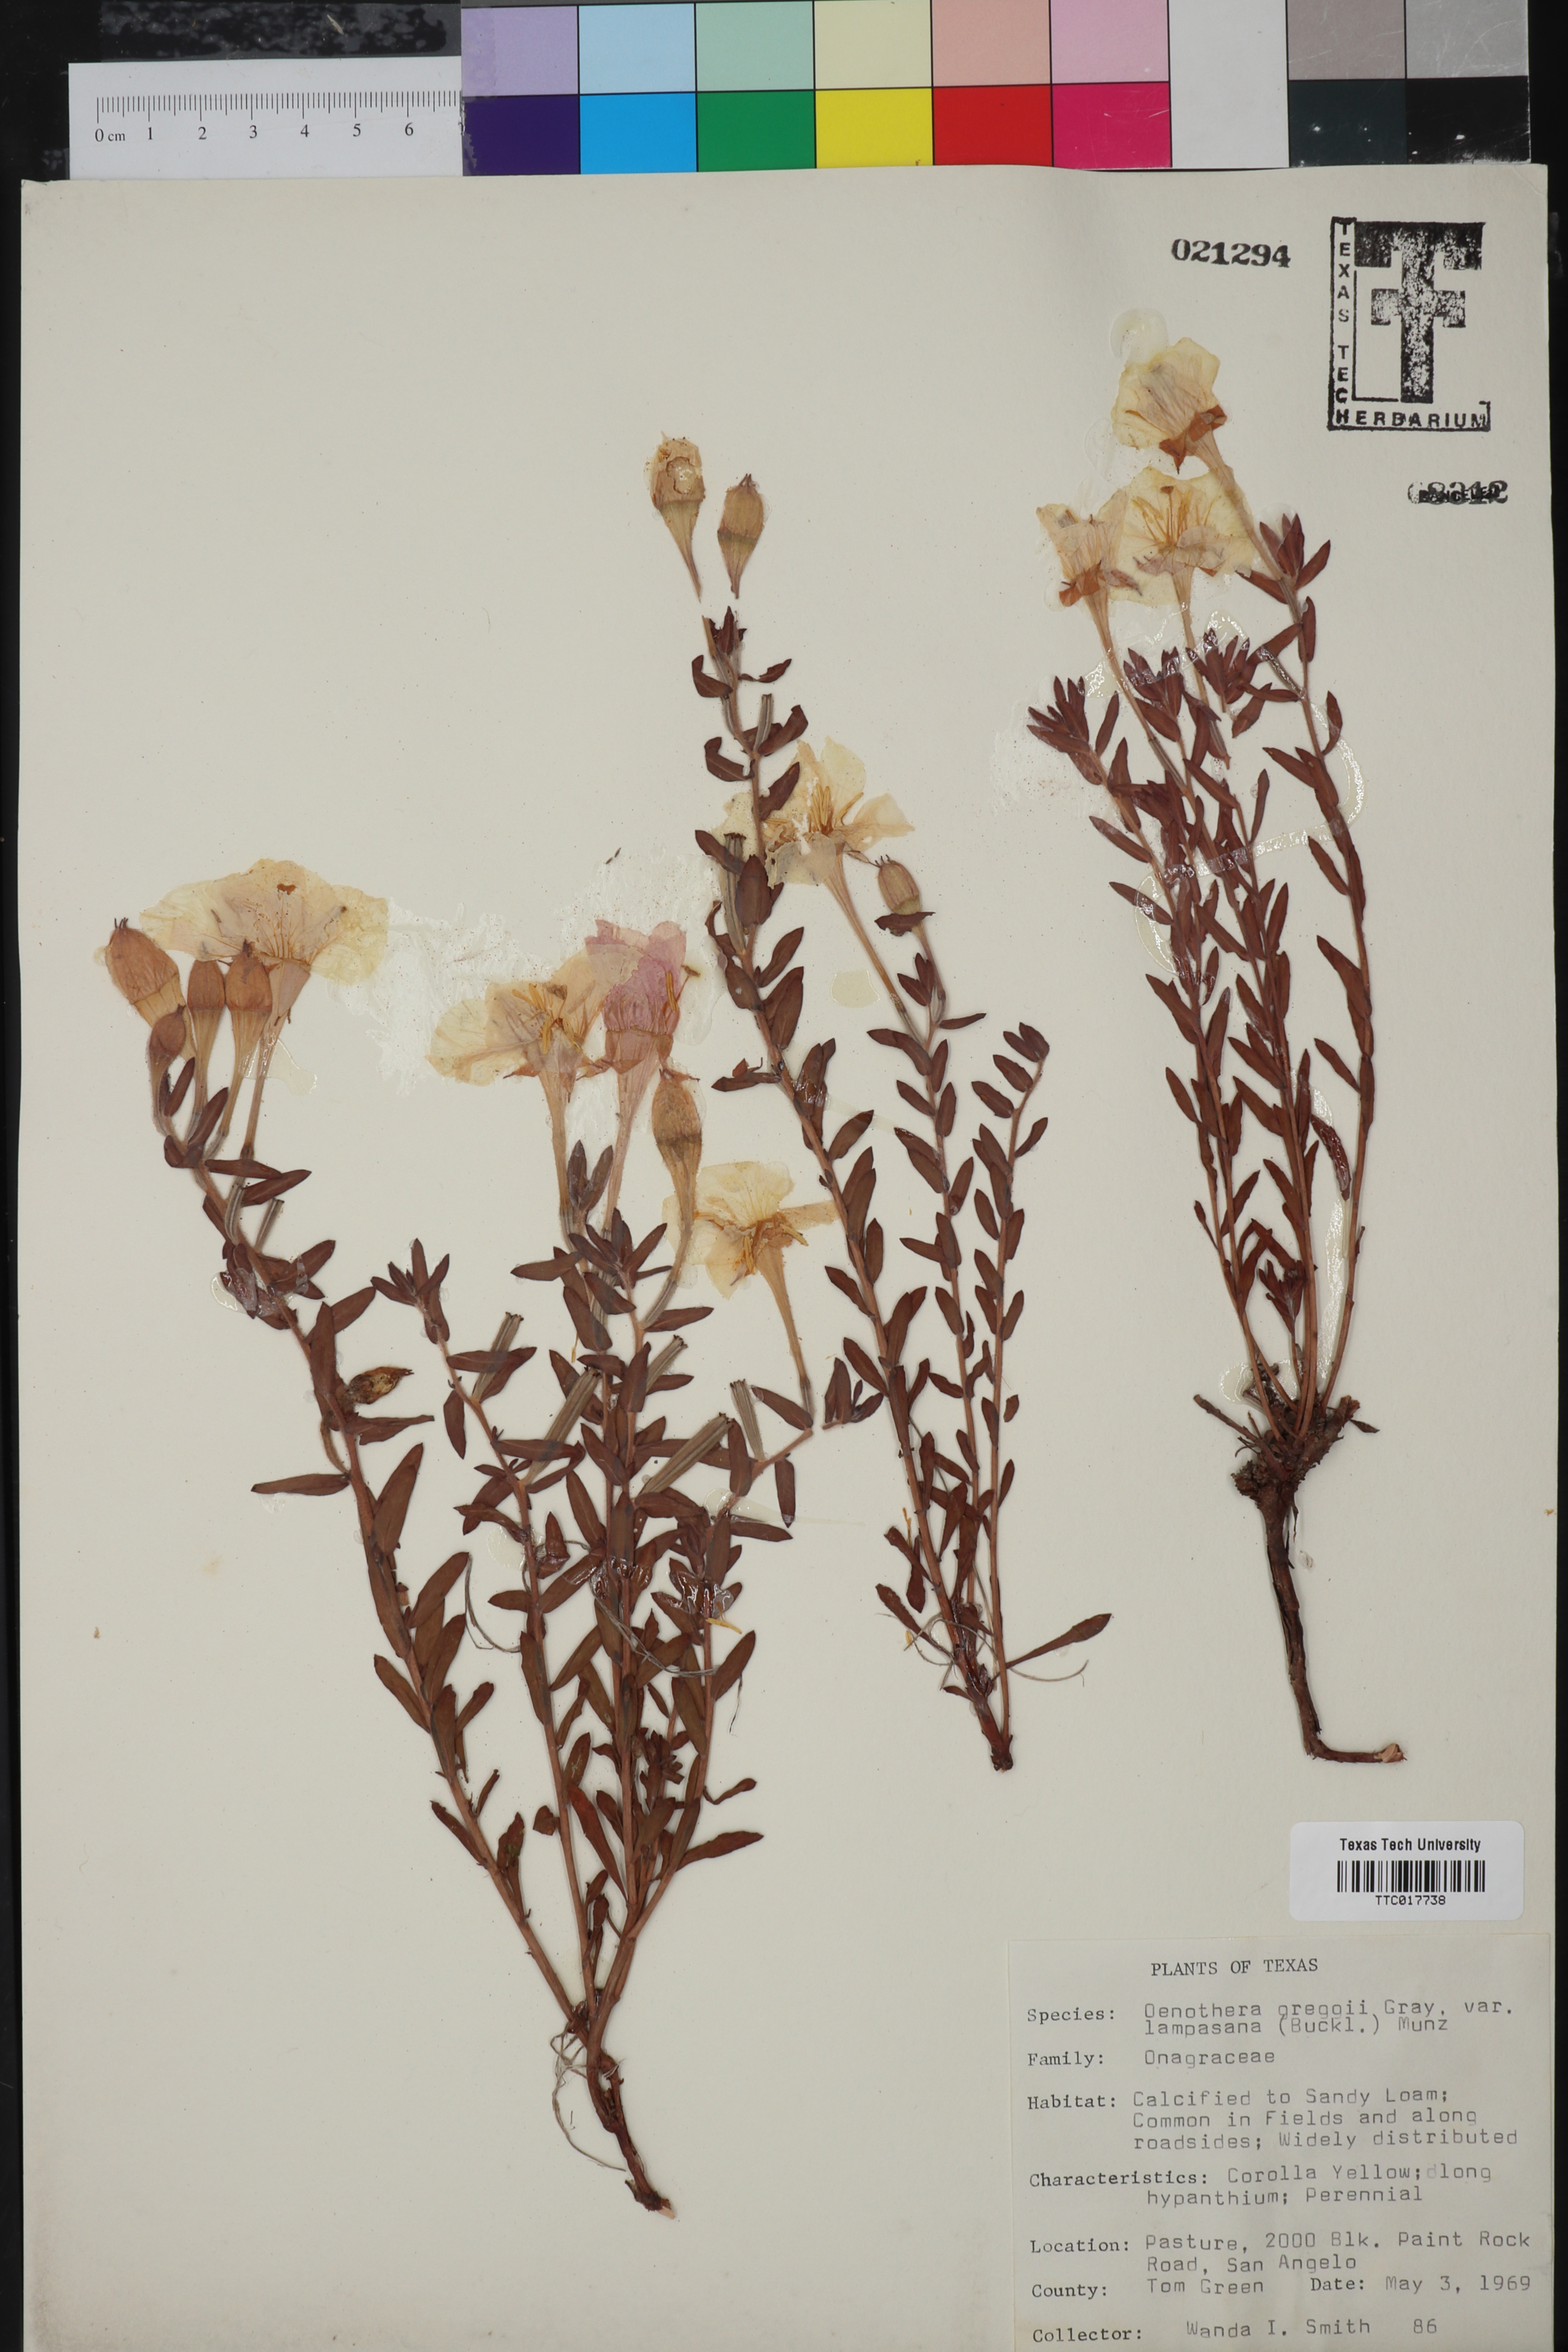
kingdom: Plantae
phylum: Tracheophyta
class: Magnoliopsida
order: Myrtales
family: Onagraceae
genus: Oenothera
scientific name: Oenothera hartwegii
